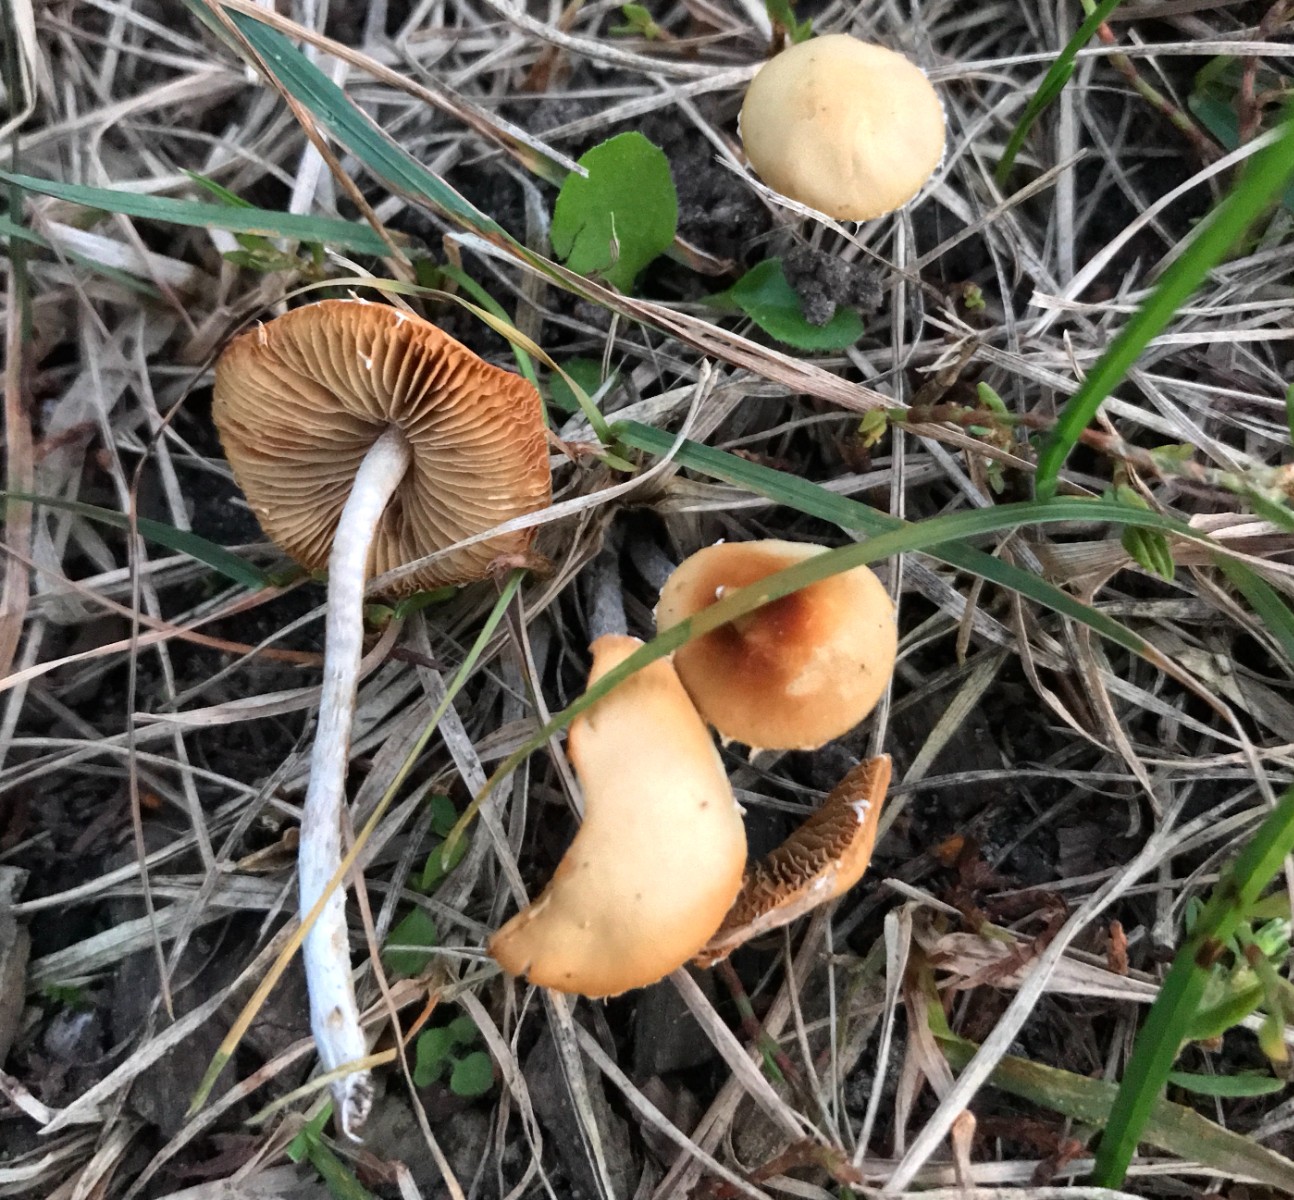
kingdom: Fungi
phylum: Basidiomycota
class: Agaricomycetes
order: Agaricales
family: Marasmiaceae
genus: Marasmius
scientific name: Marasmius oreades
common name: elledans-bruskhat
